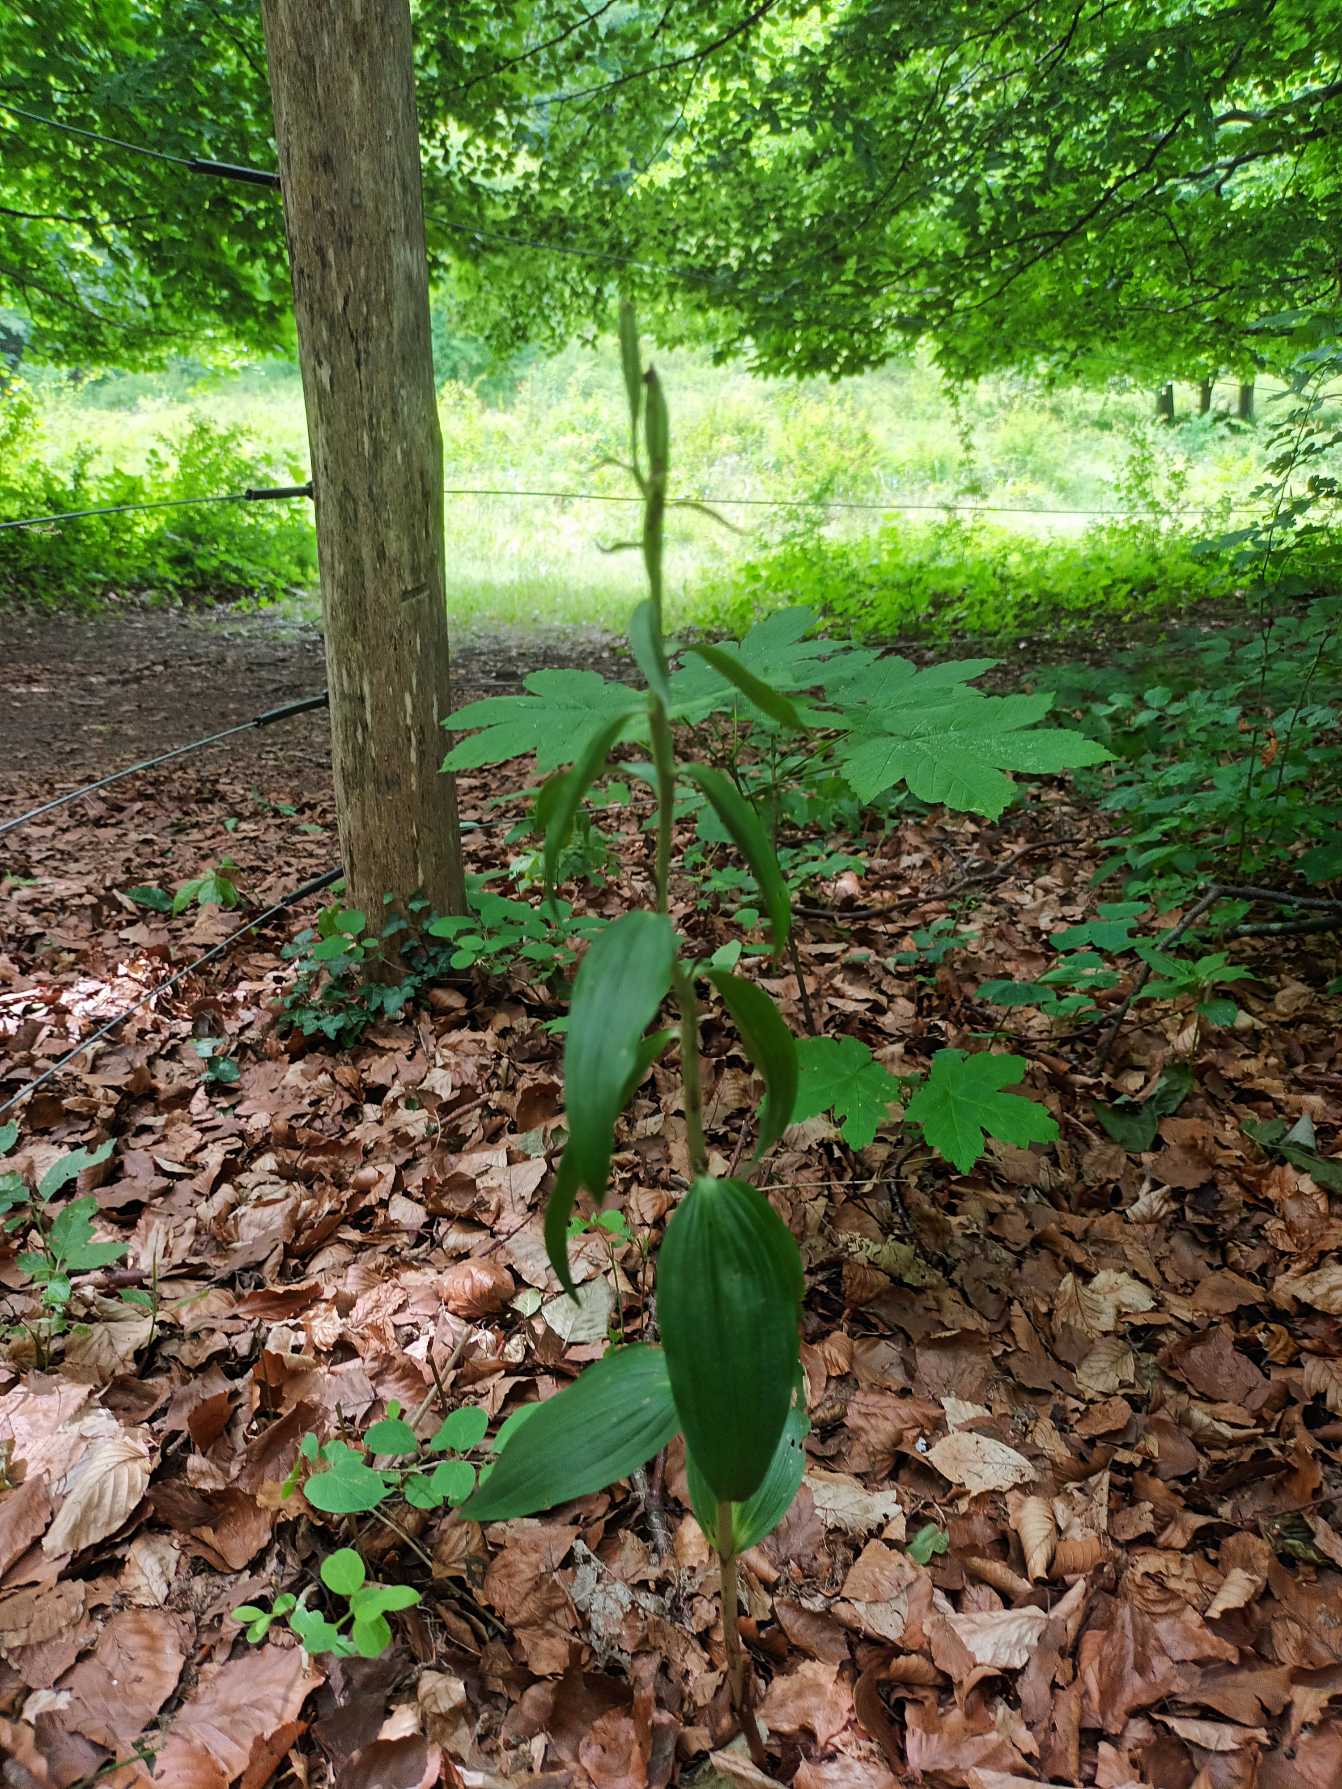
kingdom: Plantae
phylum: Tracheophyta
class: Liliopsida
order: Asparagales
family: Orchidaceae
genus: Cephalanthera
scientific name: Cephalanthera
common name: Skovliljeslægten
